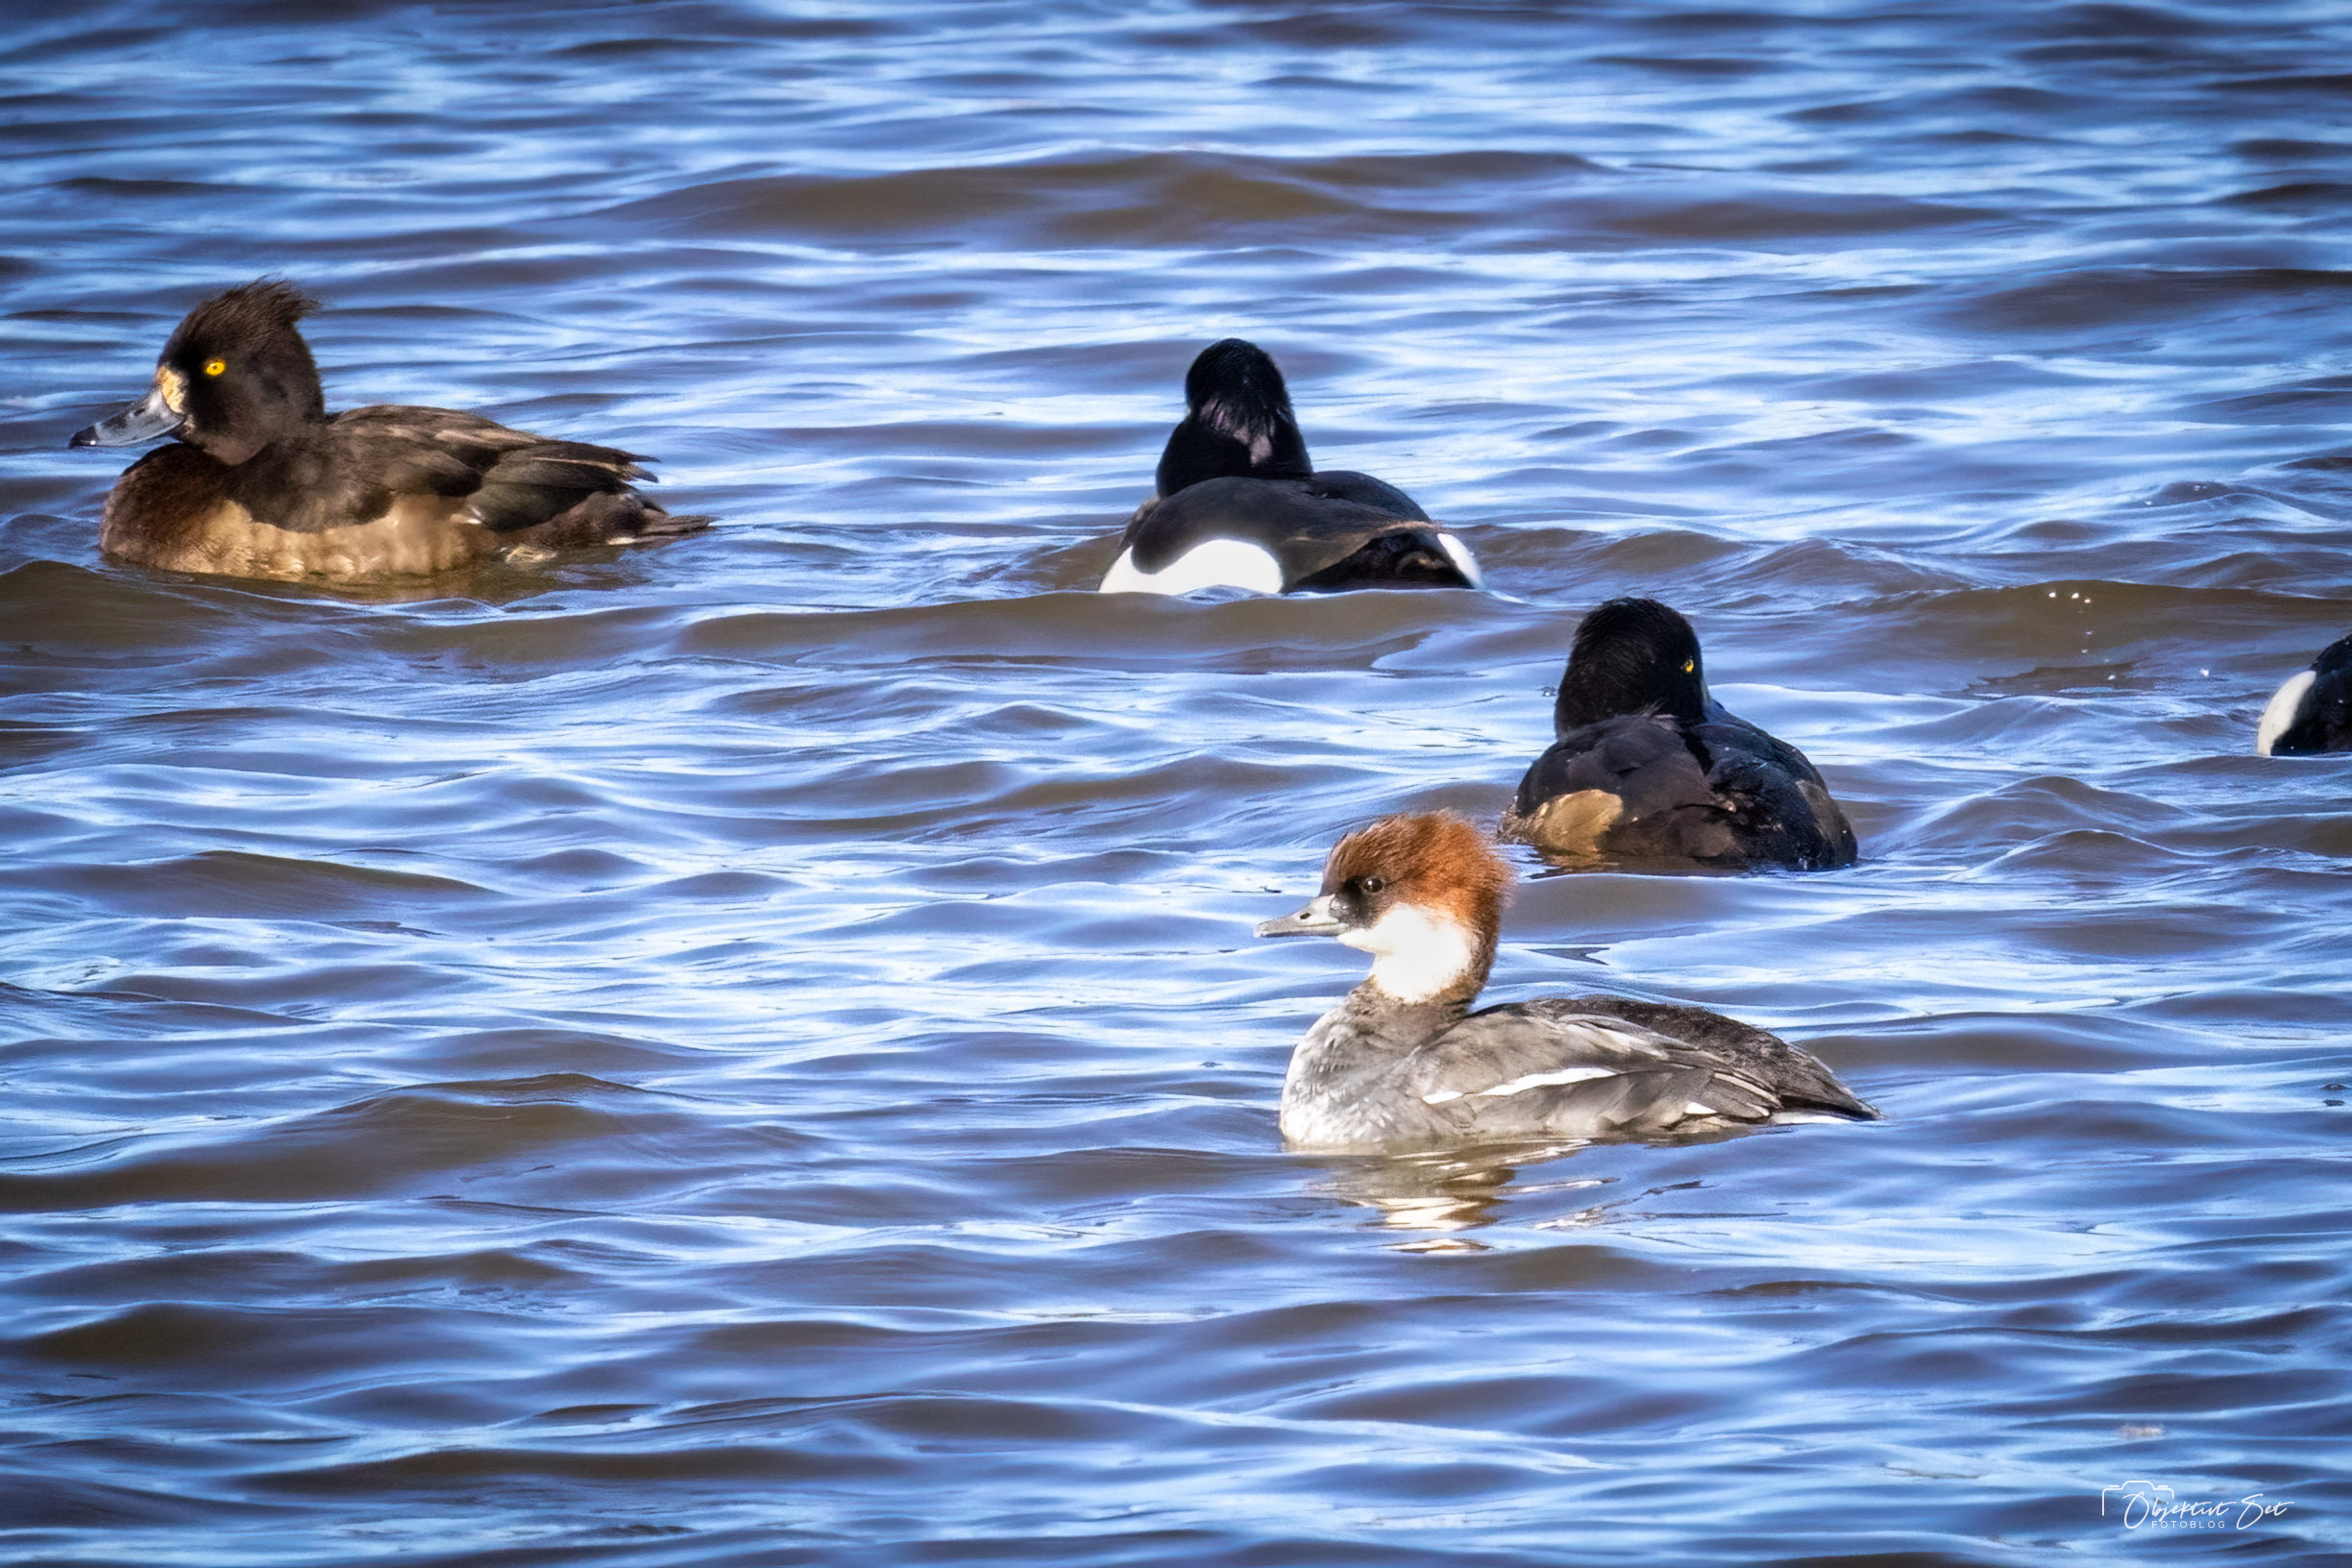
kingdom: Animalia
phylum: Chordata
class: Aves
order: Anseriformes
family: Anatidae
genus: Mergellus
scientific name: Mergellus albellus
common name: Lille skallesluger
